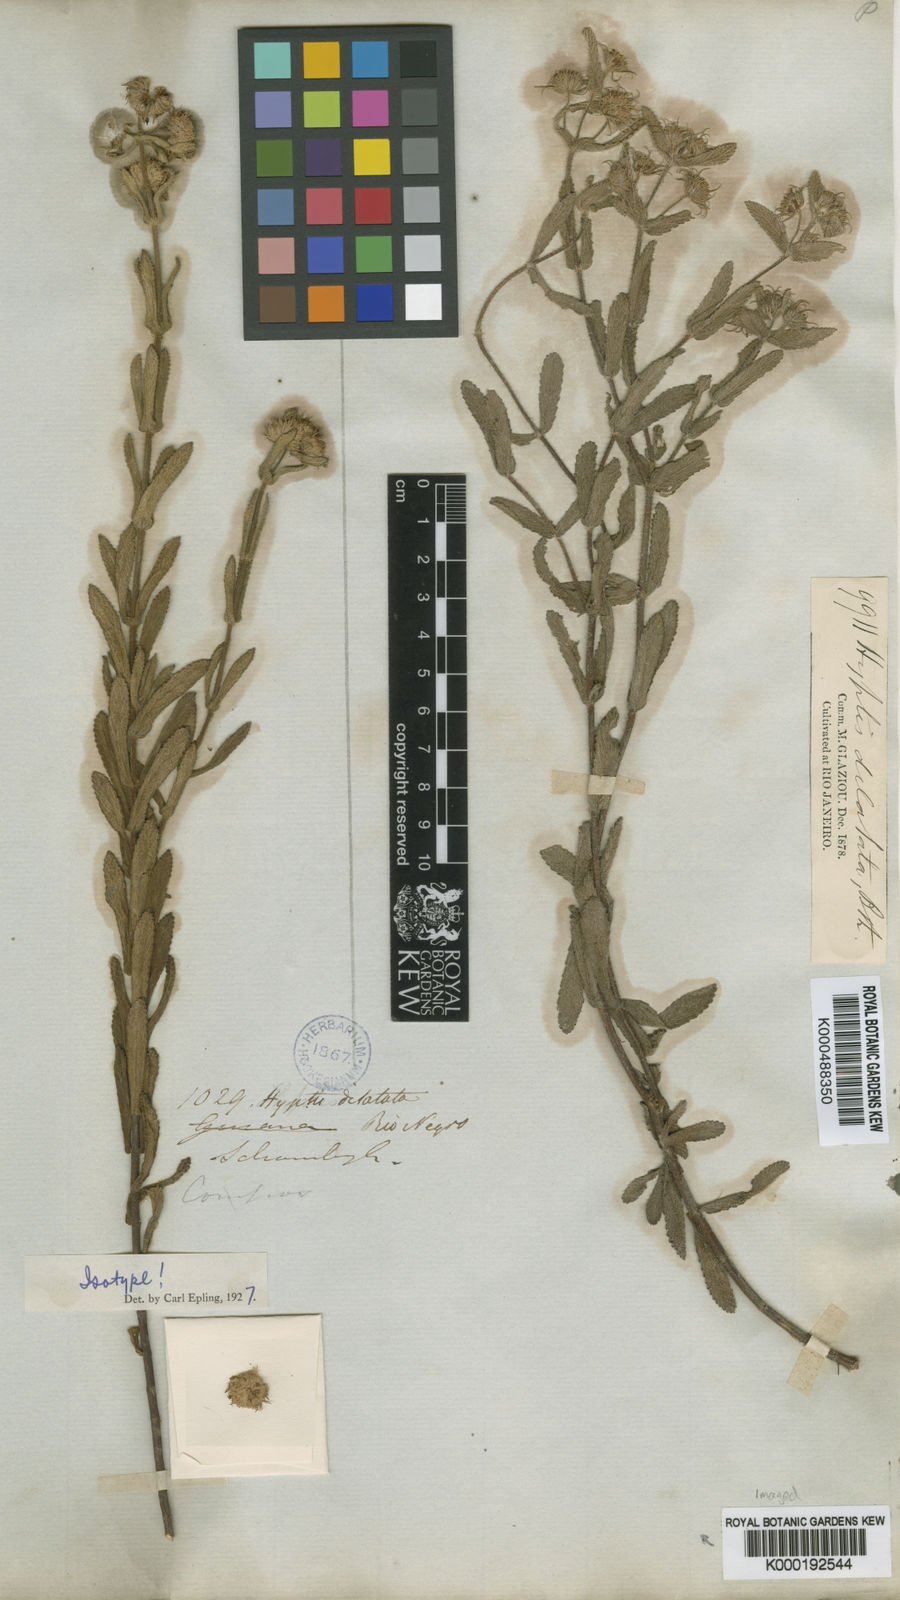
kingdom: Plantae
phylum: Tracheophyta
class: Magnoliopsida
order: Lamiales
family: Lamiaceae
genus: Hyptis
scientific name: Hyptis dilatata
